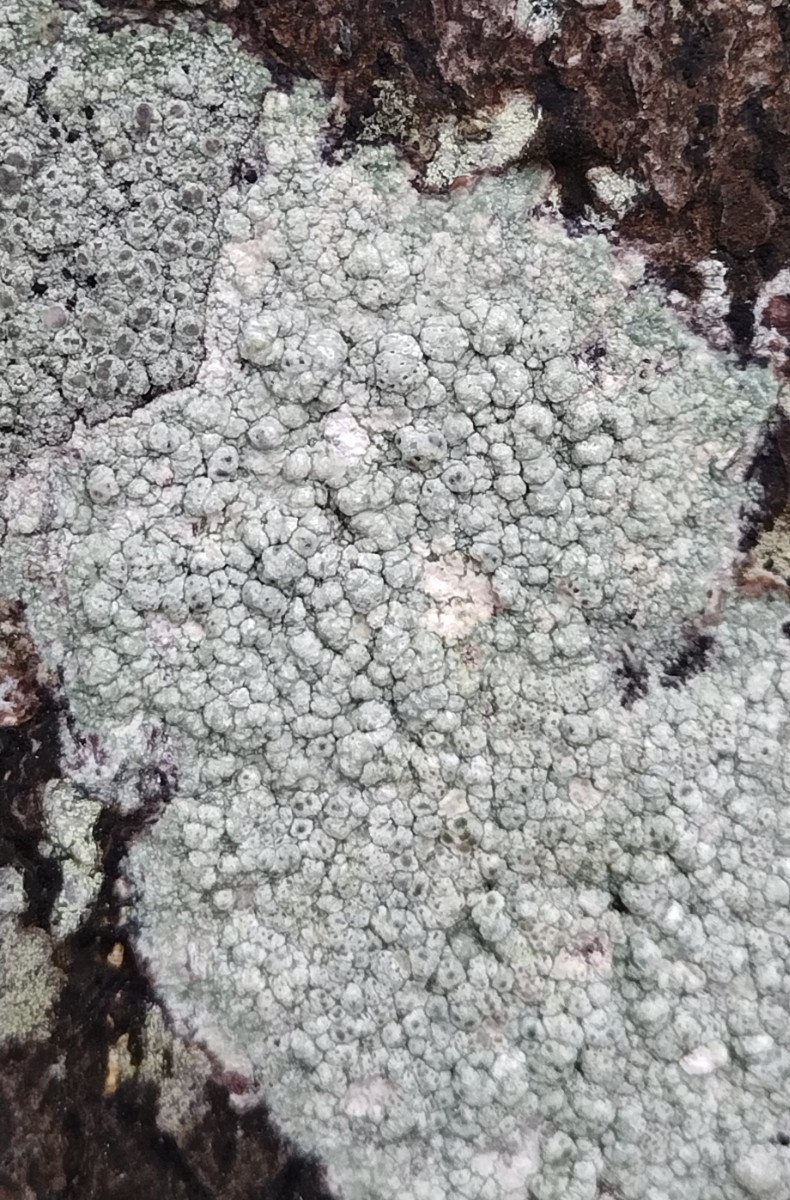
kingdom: Fungi
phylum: Ascomycota
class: Lecanoromycetes
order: Pertusariales
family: Pertusariaceae
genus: Pertusaria
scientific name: Pertusaria pertusa
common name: almindelig prikvortelav
